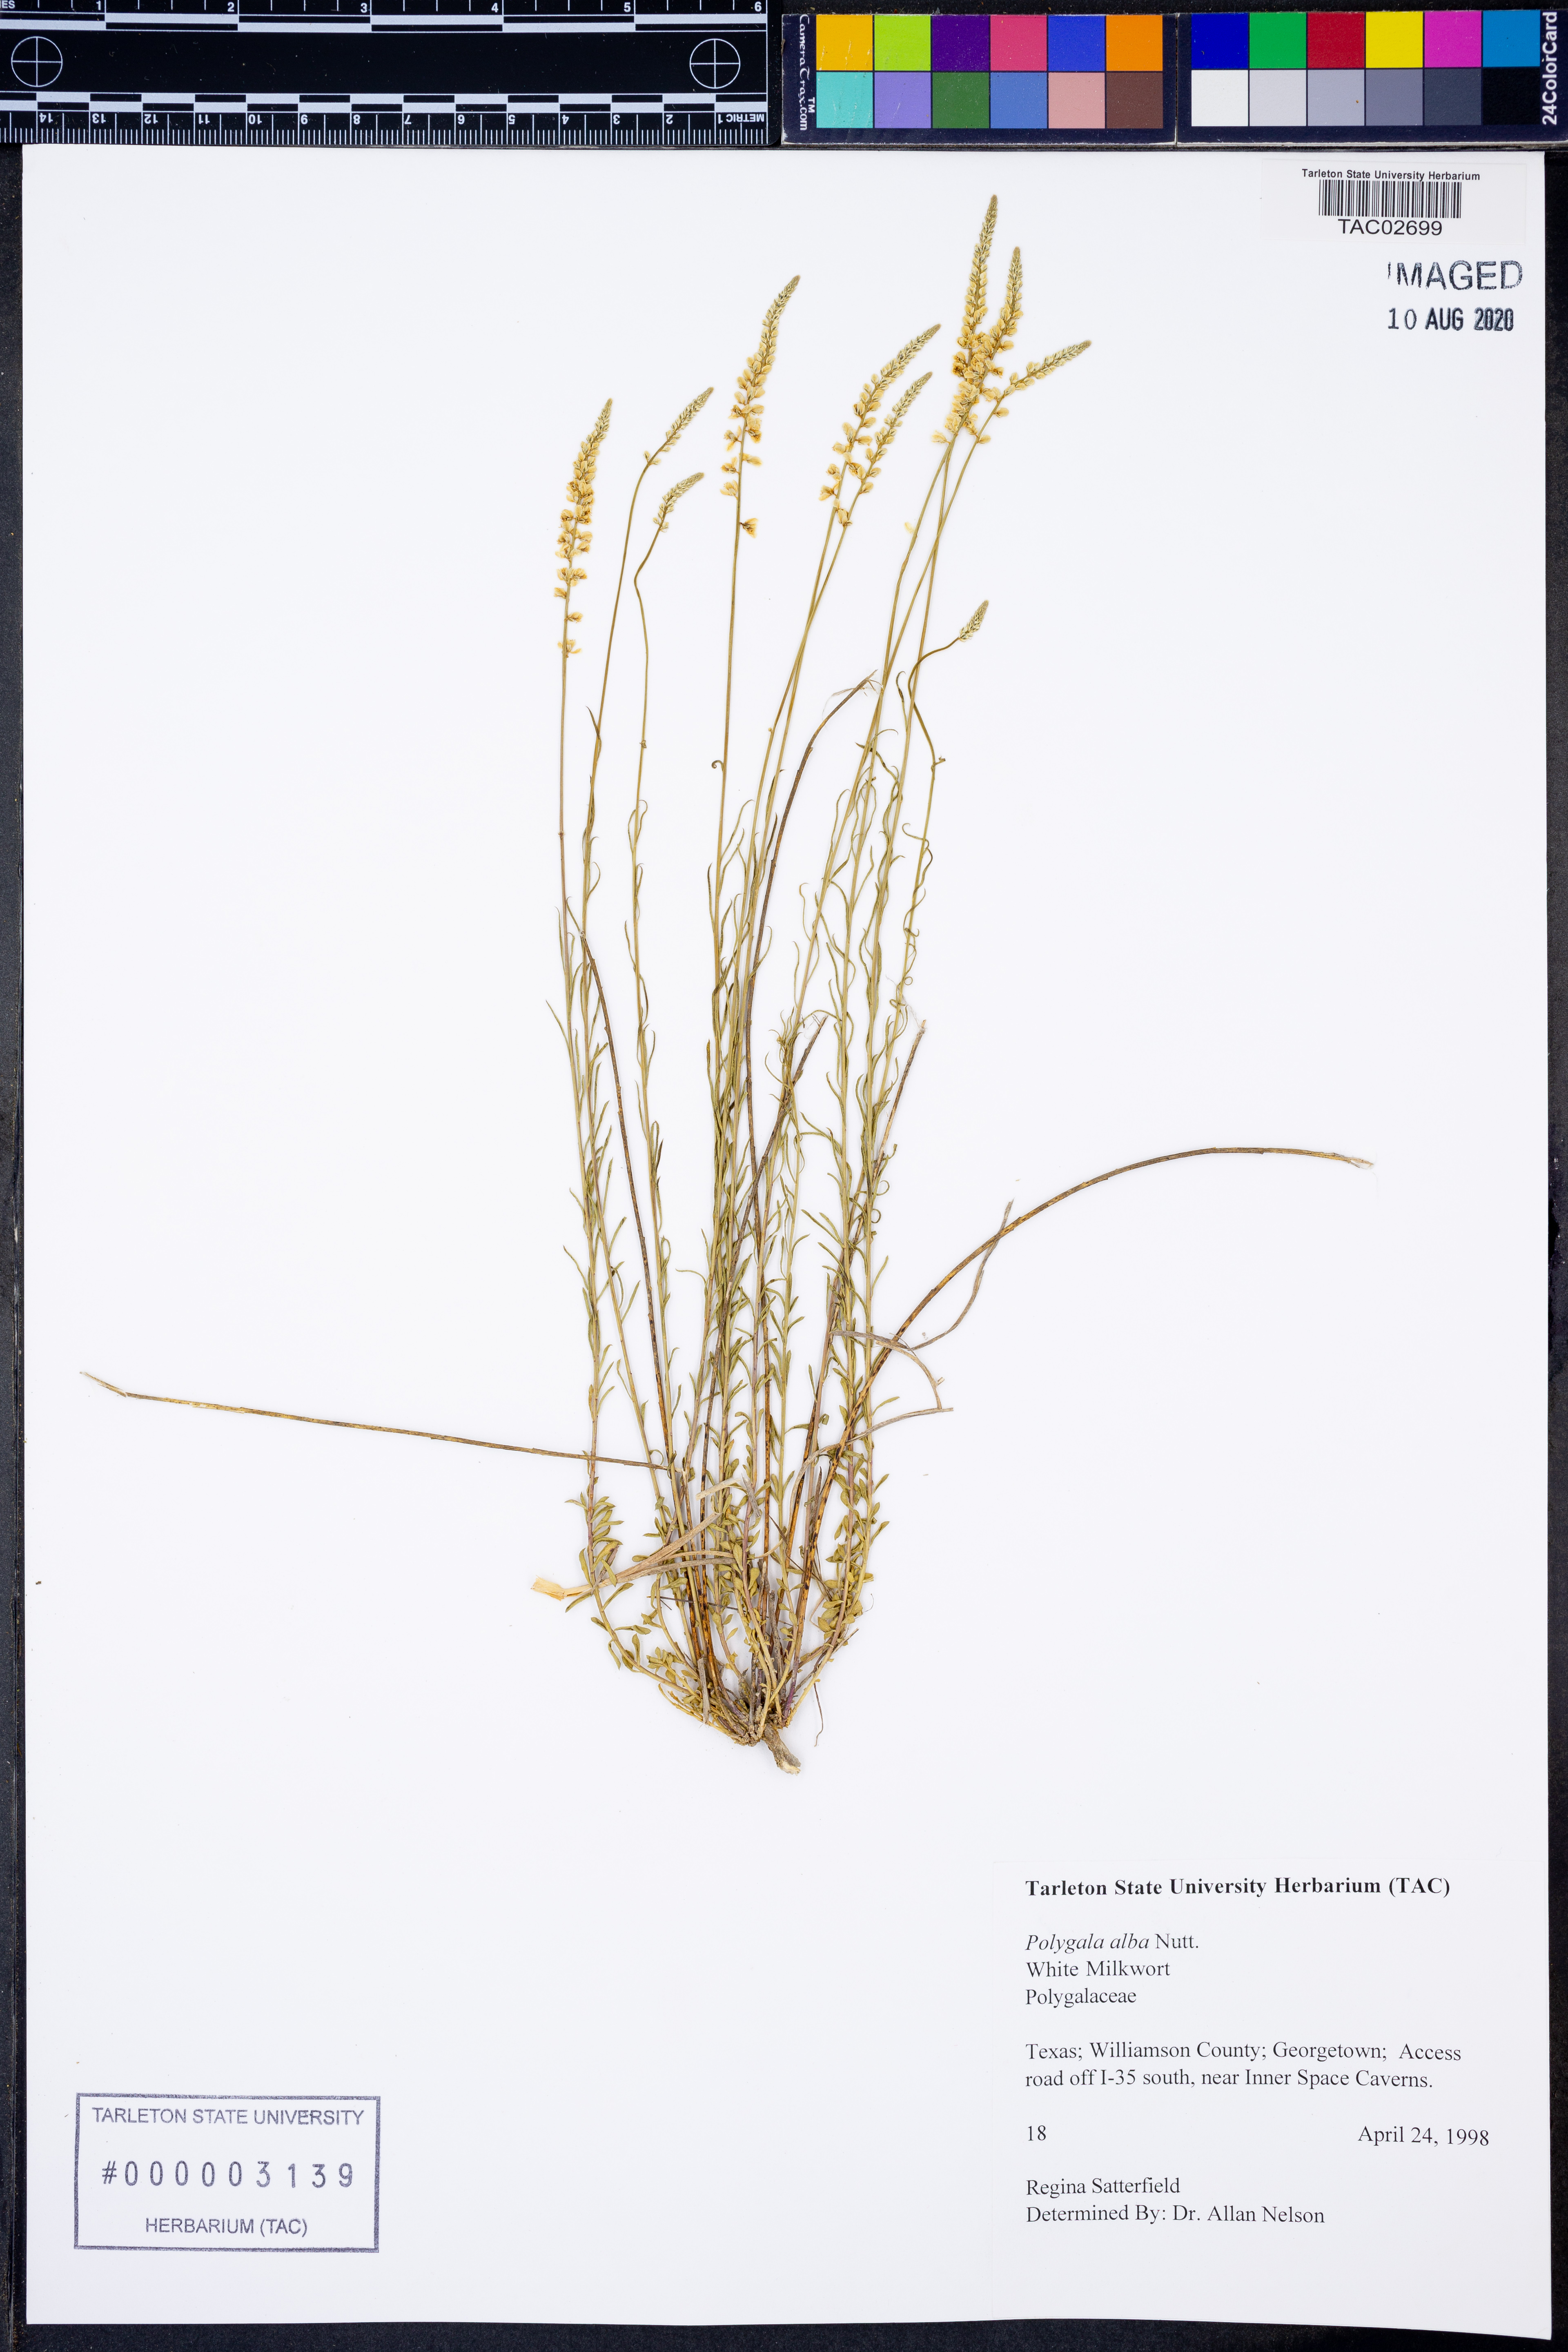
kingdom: Plantae
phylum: Tracheophyta
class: Magnoliopsida
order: Fabales
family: Polygalaceae
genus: Polygala
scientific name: Polygala alba
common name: White milkwort
